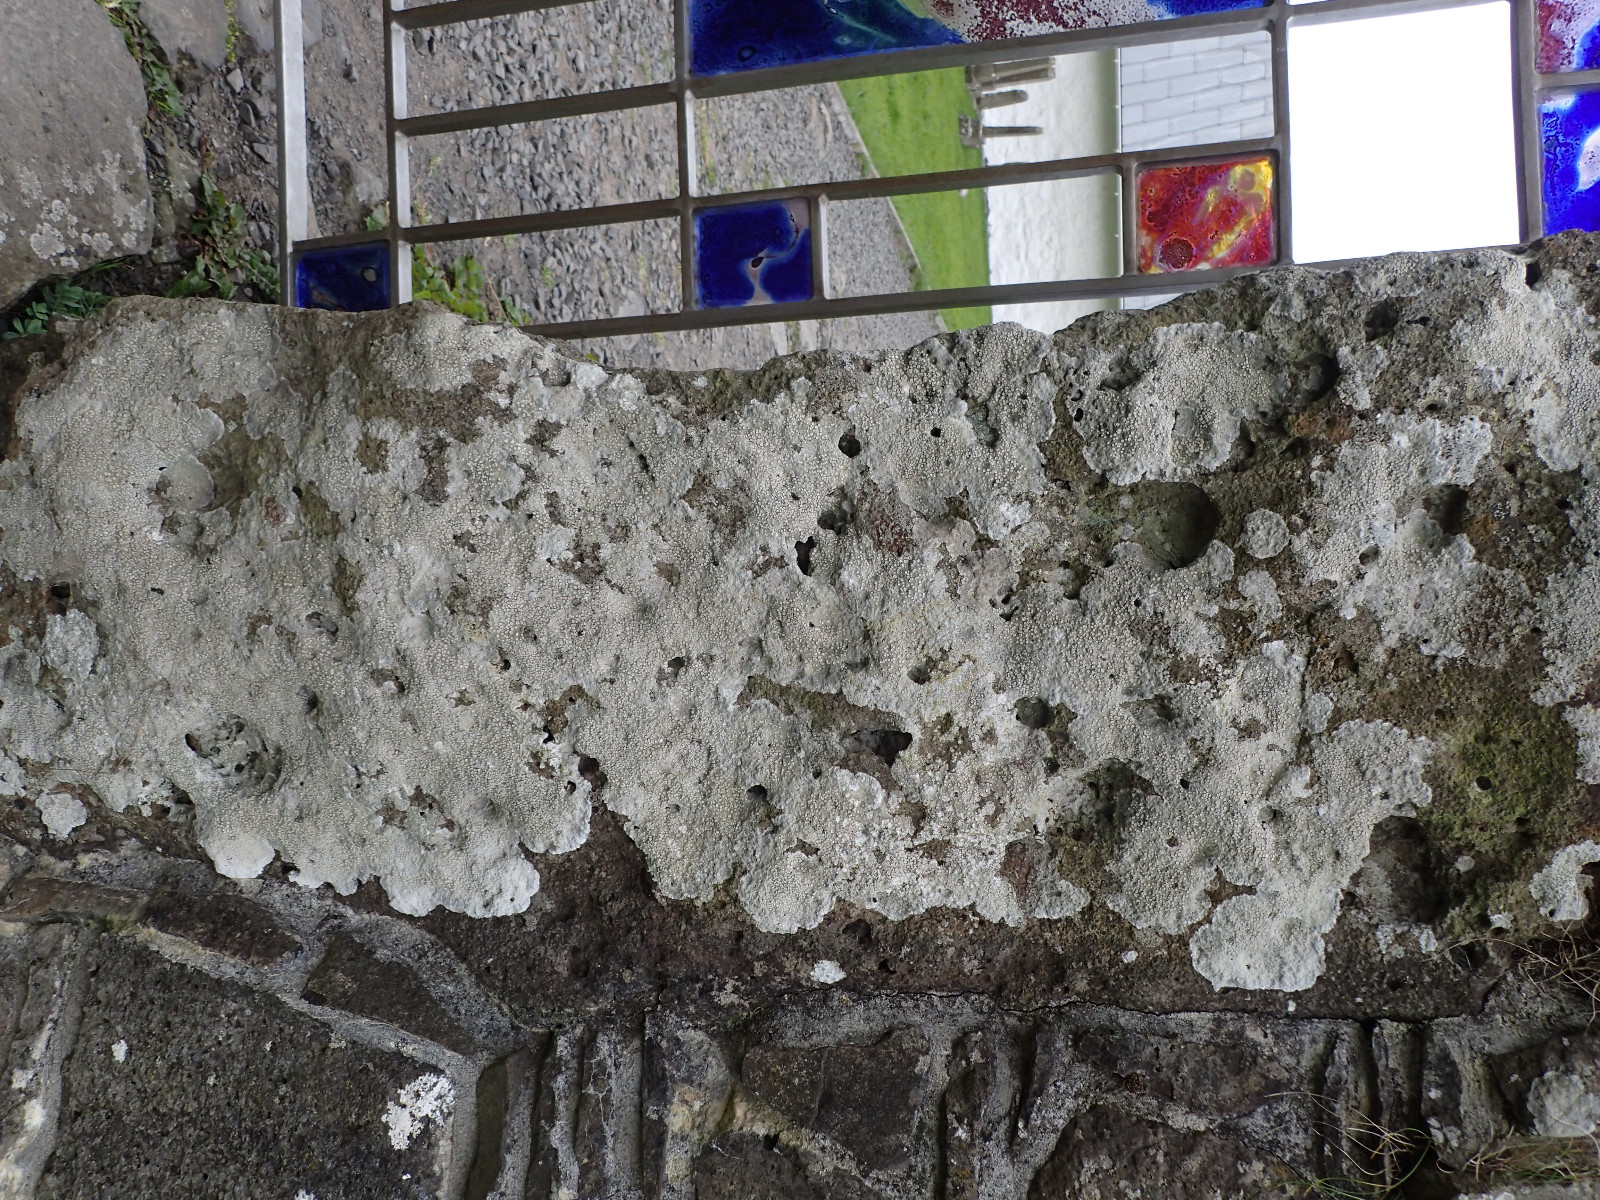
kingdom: Fungi
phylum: Ascomycota
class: Lecanoromycetes
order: Pertusariales
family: Ochrolechiaceae
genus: Ochrolechia
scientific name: Ochrolechia parella
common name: almindelig blegskivelav
